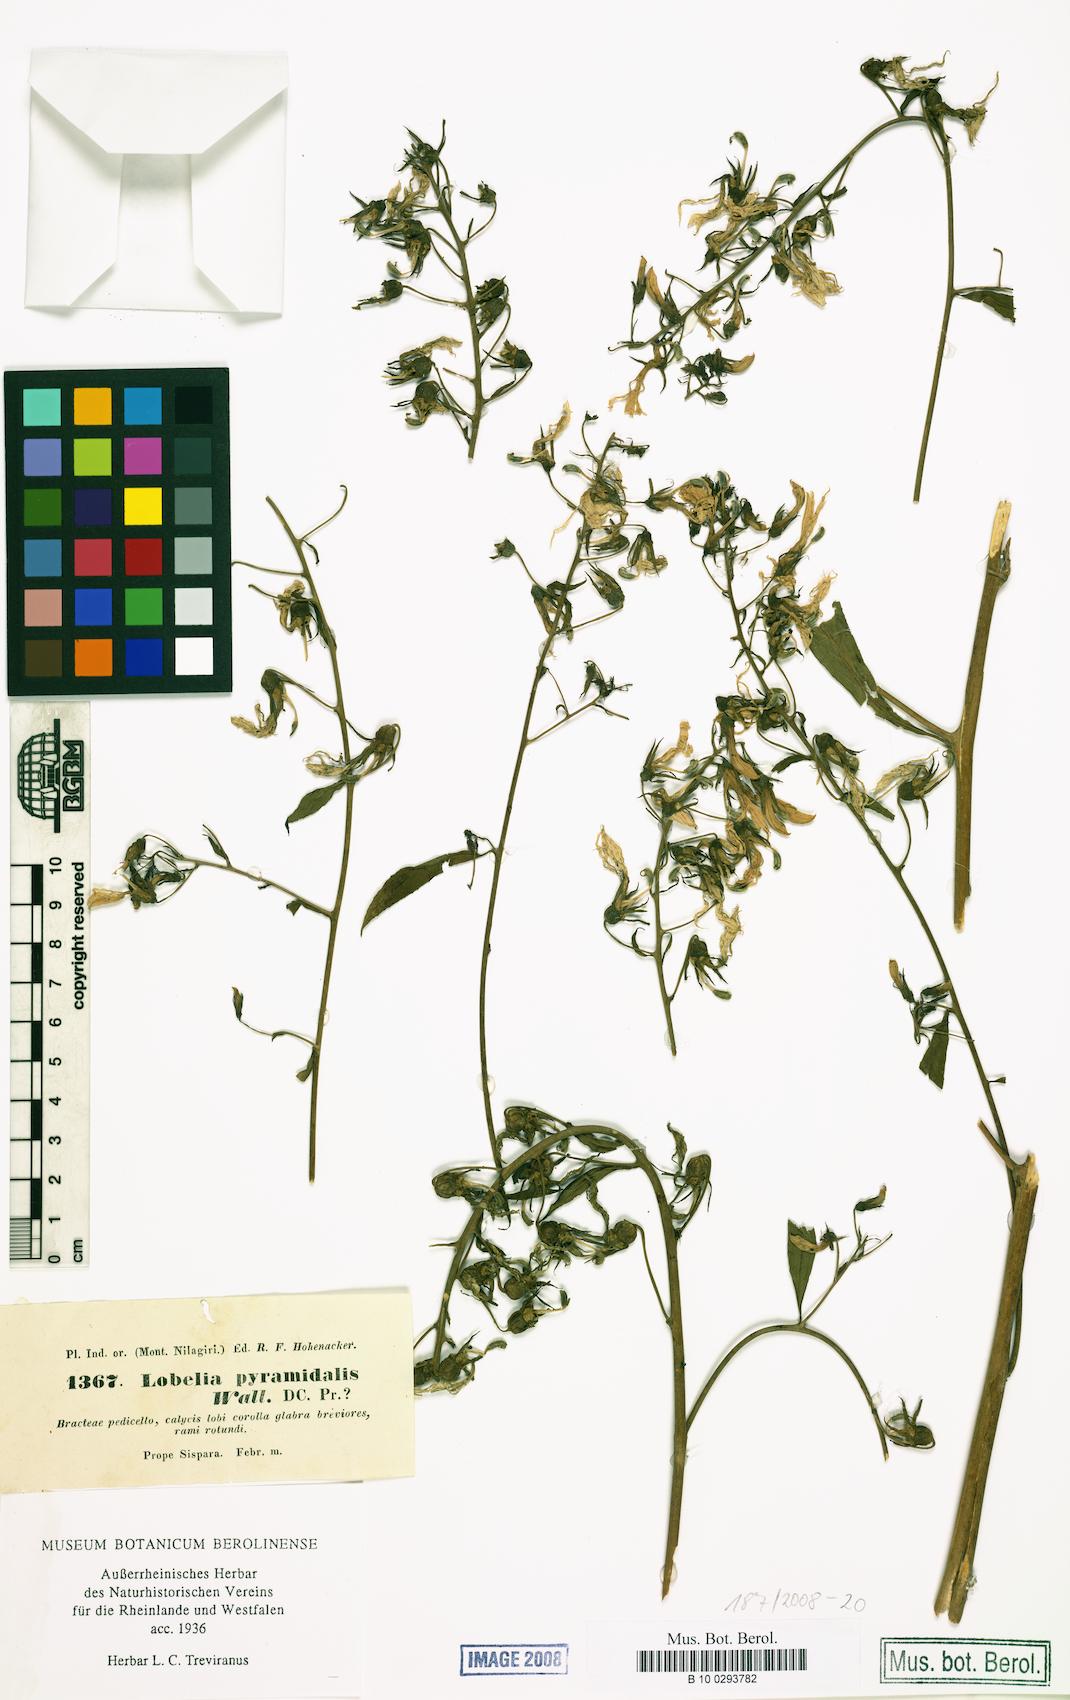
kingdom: Plantae
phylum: Tracheophyta
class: Magnoliopsida
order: Asterales
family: Campanulaceae
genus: Lobelia
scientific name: Lobelia nicotianifolia
